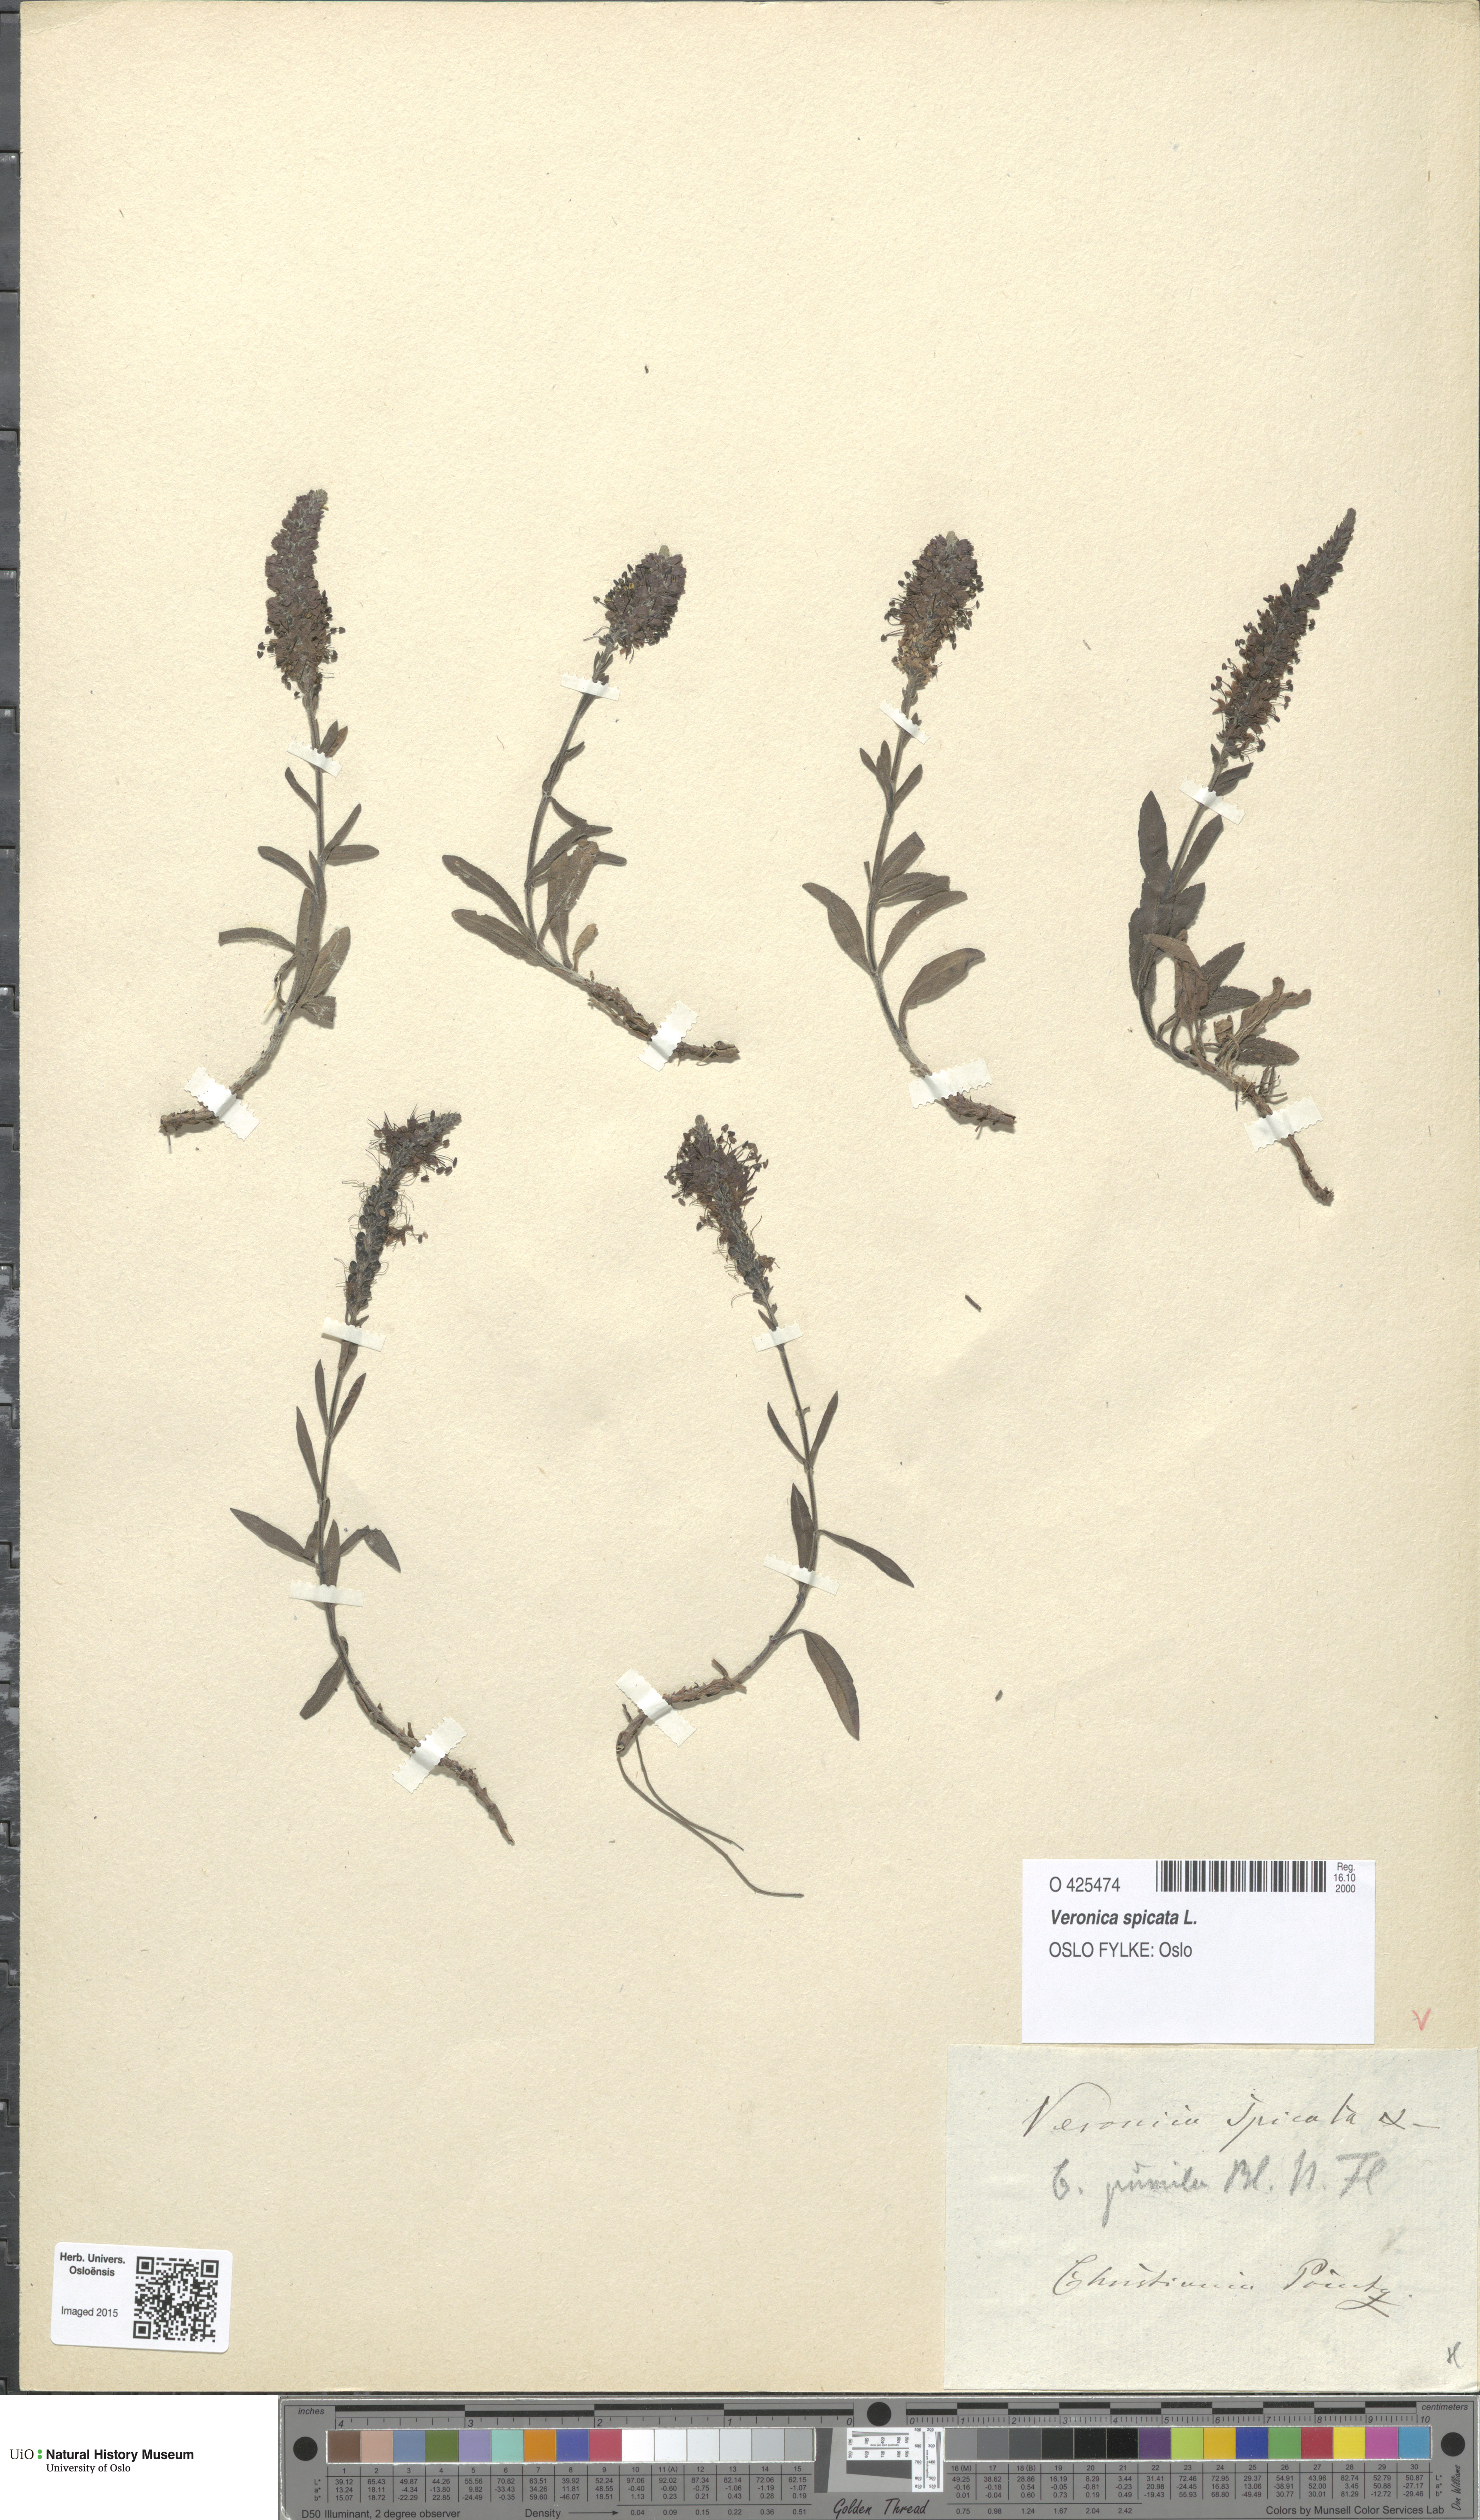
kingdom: Plantae
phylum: Tracheophyta
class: Magnoliopsida
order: Lamiales
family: Plantaginaceae
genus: Veronica
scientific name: Veronica spicata
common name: Spiked speedwell
